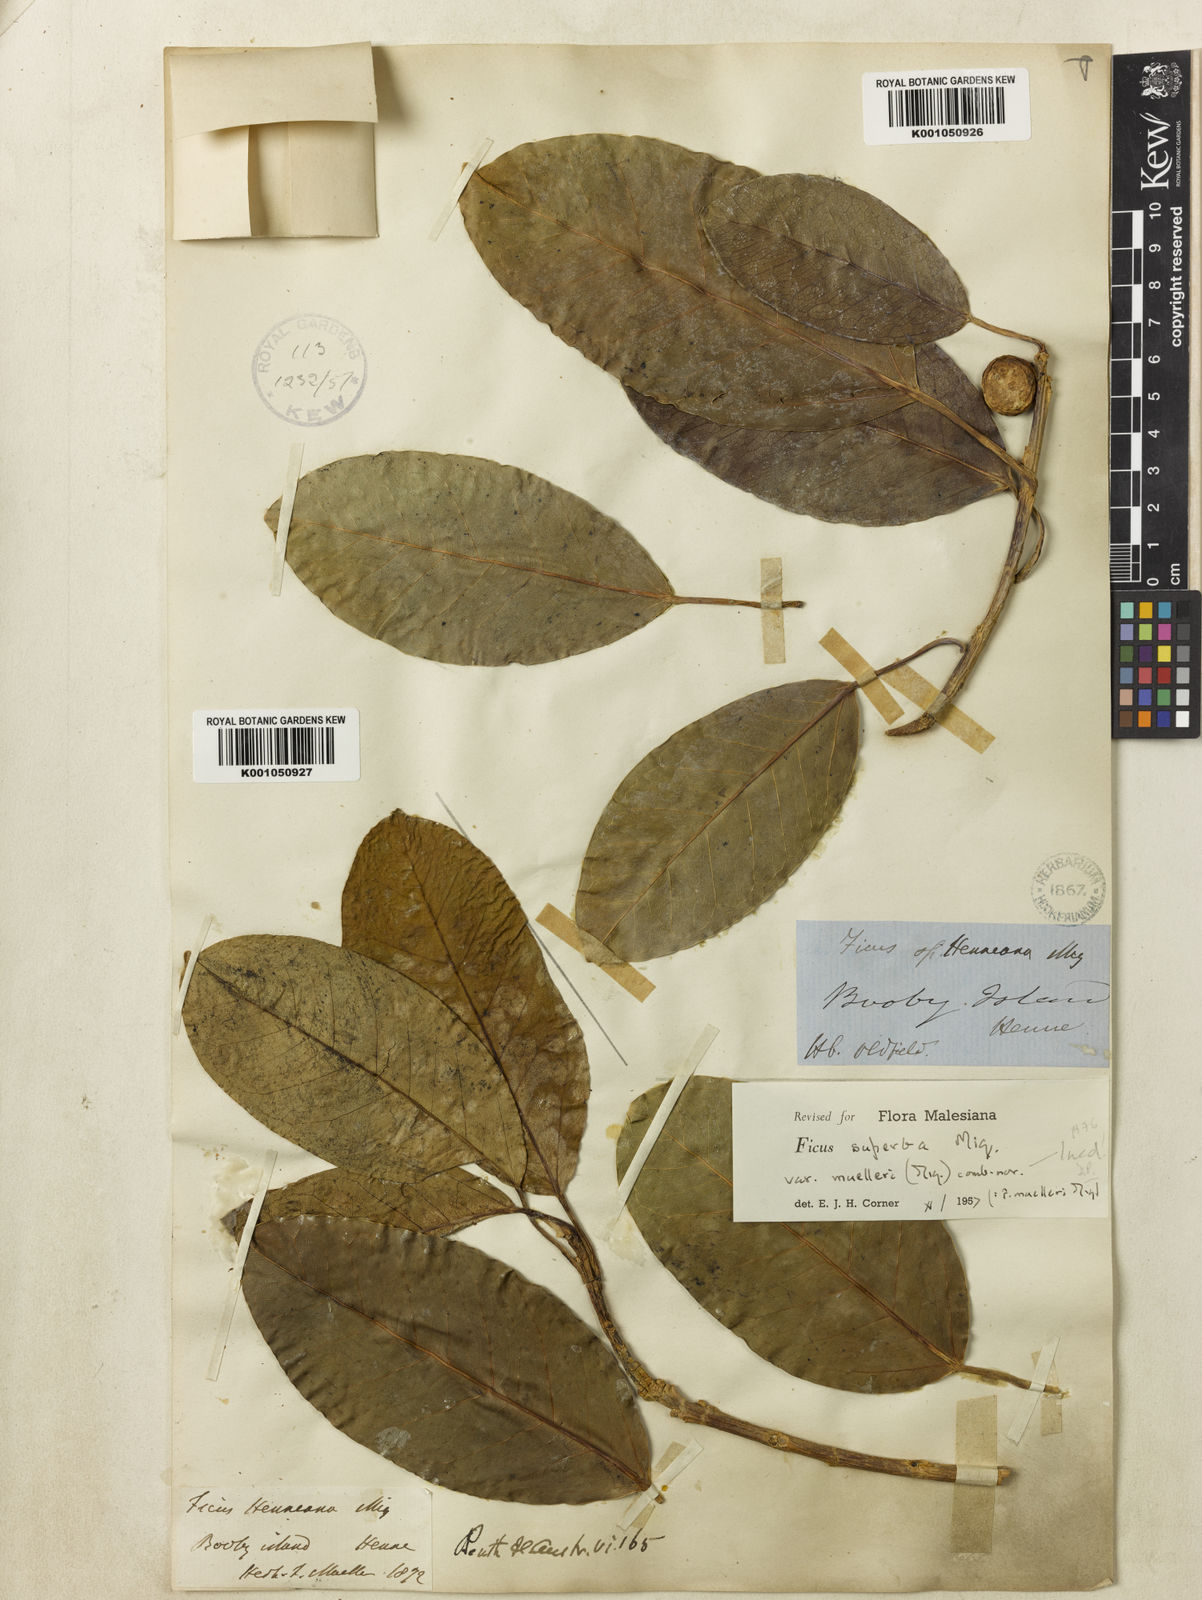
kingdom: Plantae
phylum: Tracheophyta
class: Magnoliopsida
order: Rosales
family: Moraceae
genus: Ficus
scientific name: Ficus henneana
